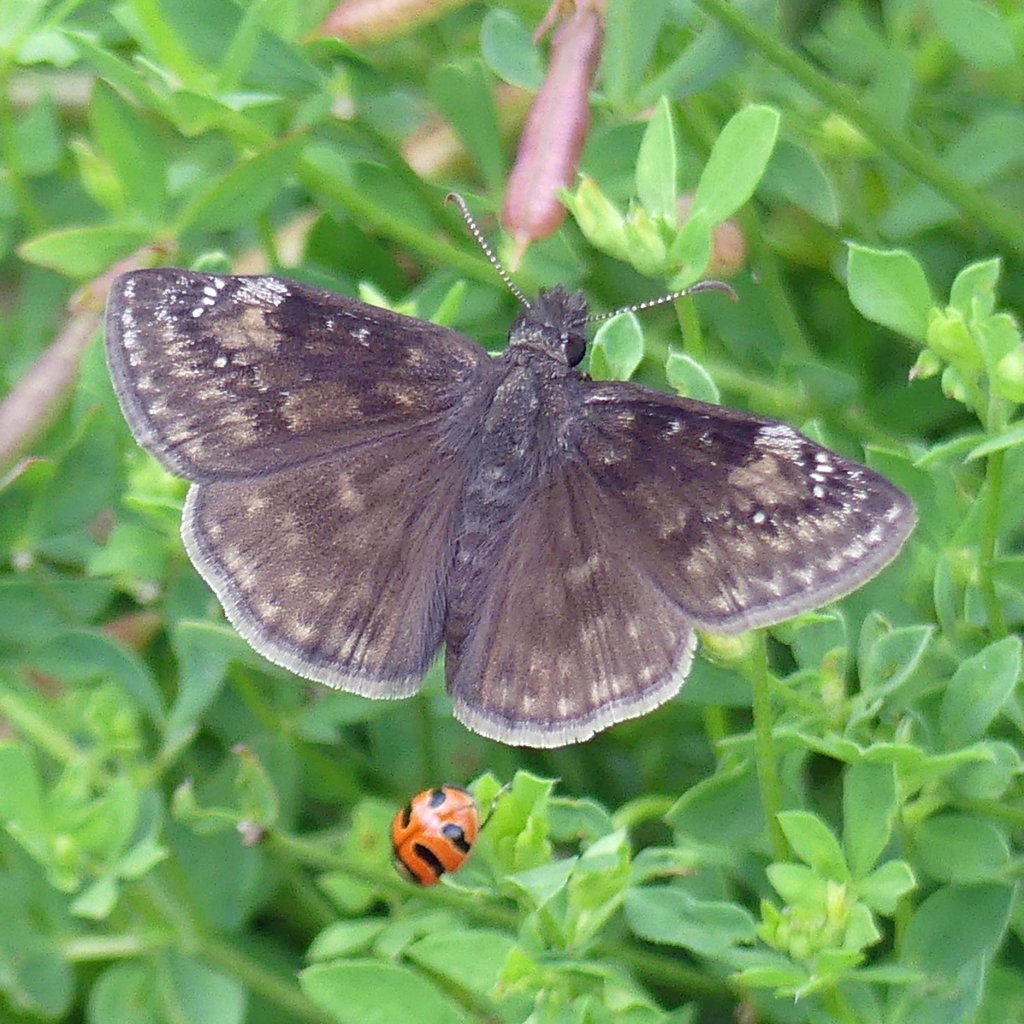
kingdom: Animalia
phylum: Arthropoda
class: Insecta
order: Lepidoptera
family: Hesperiidae
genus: Gesta
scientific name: Gesta
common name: Wild Indigo Duskywing
